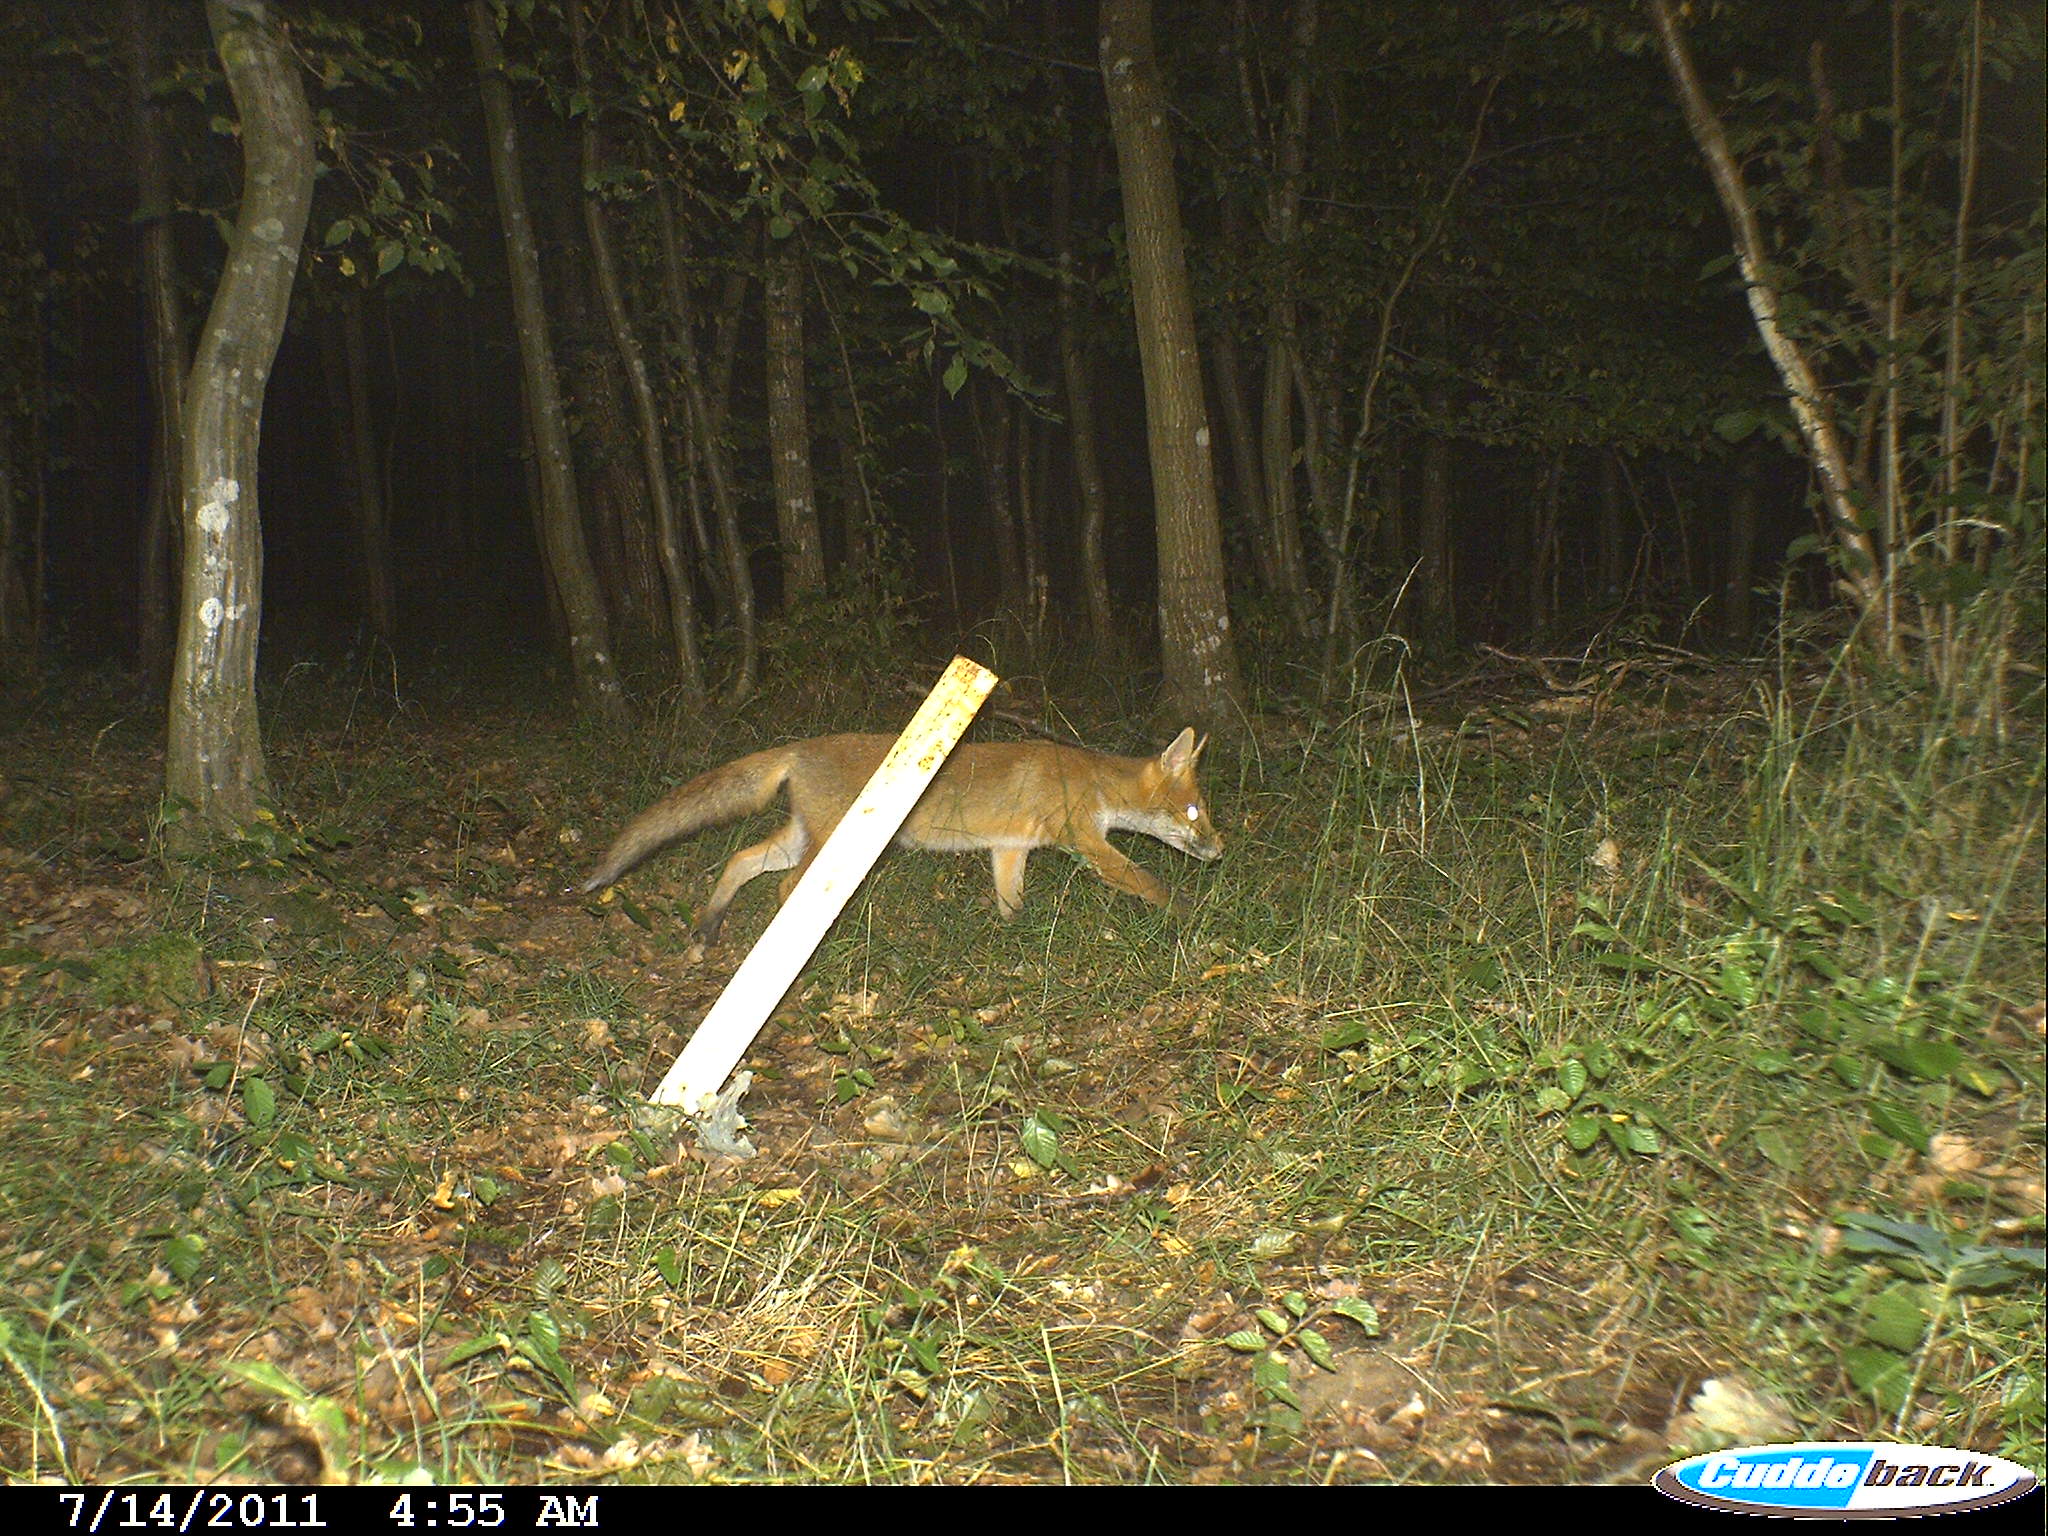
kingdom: Animalia
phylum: Chordata
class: Mammalia
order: Carnivora
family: Canidae
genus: Vulpes
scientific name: Vulpes vulpes
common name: Red fox
